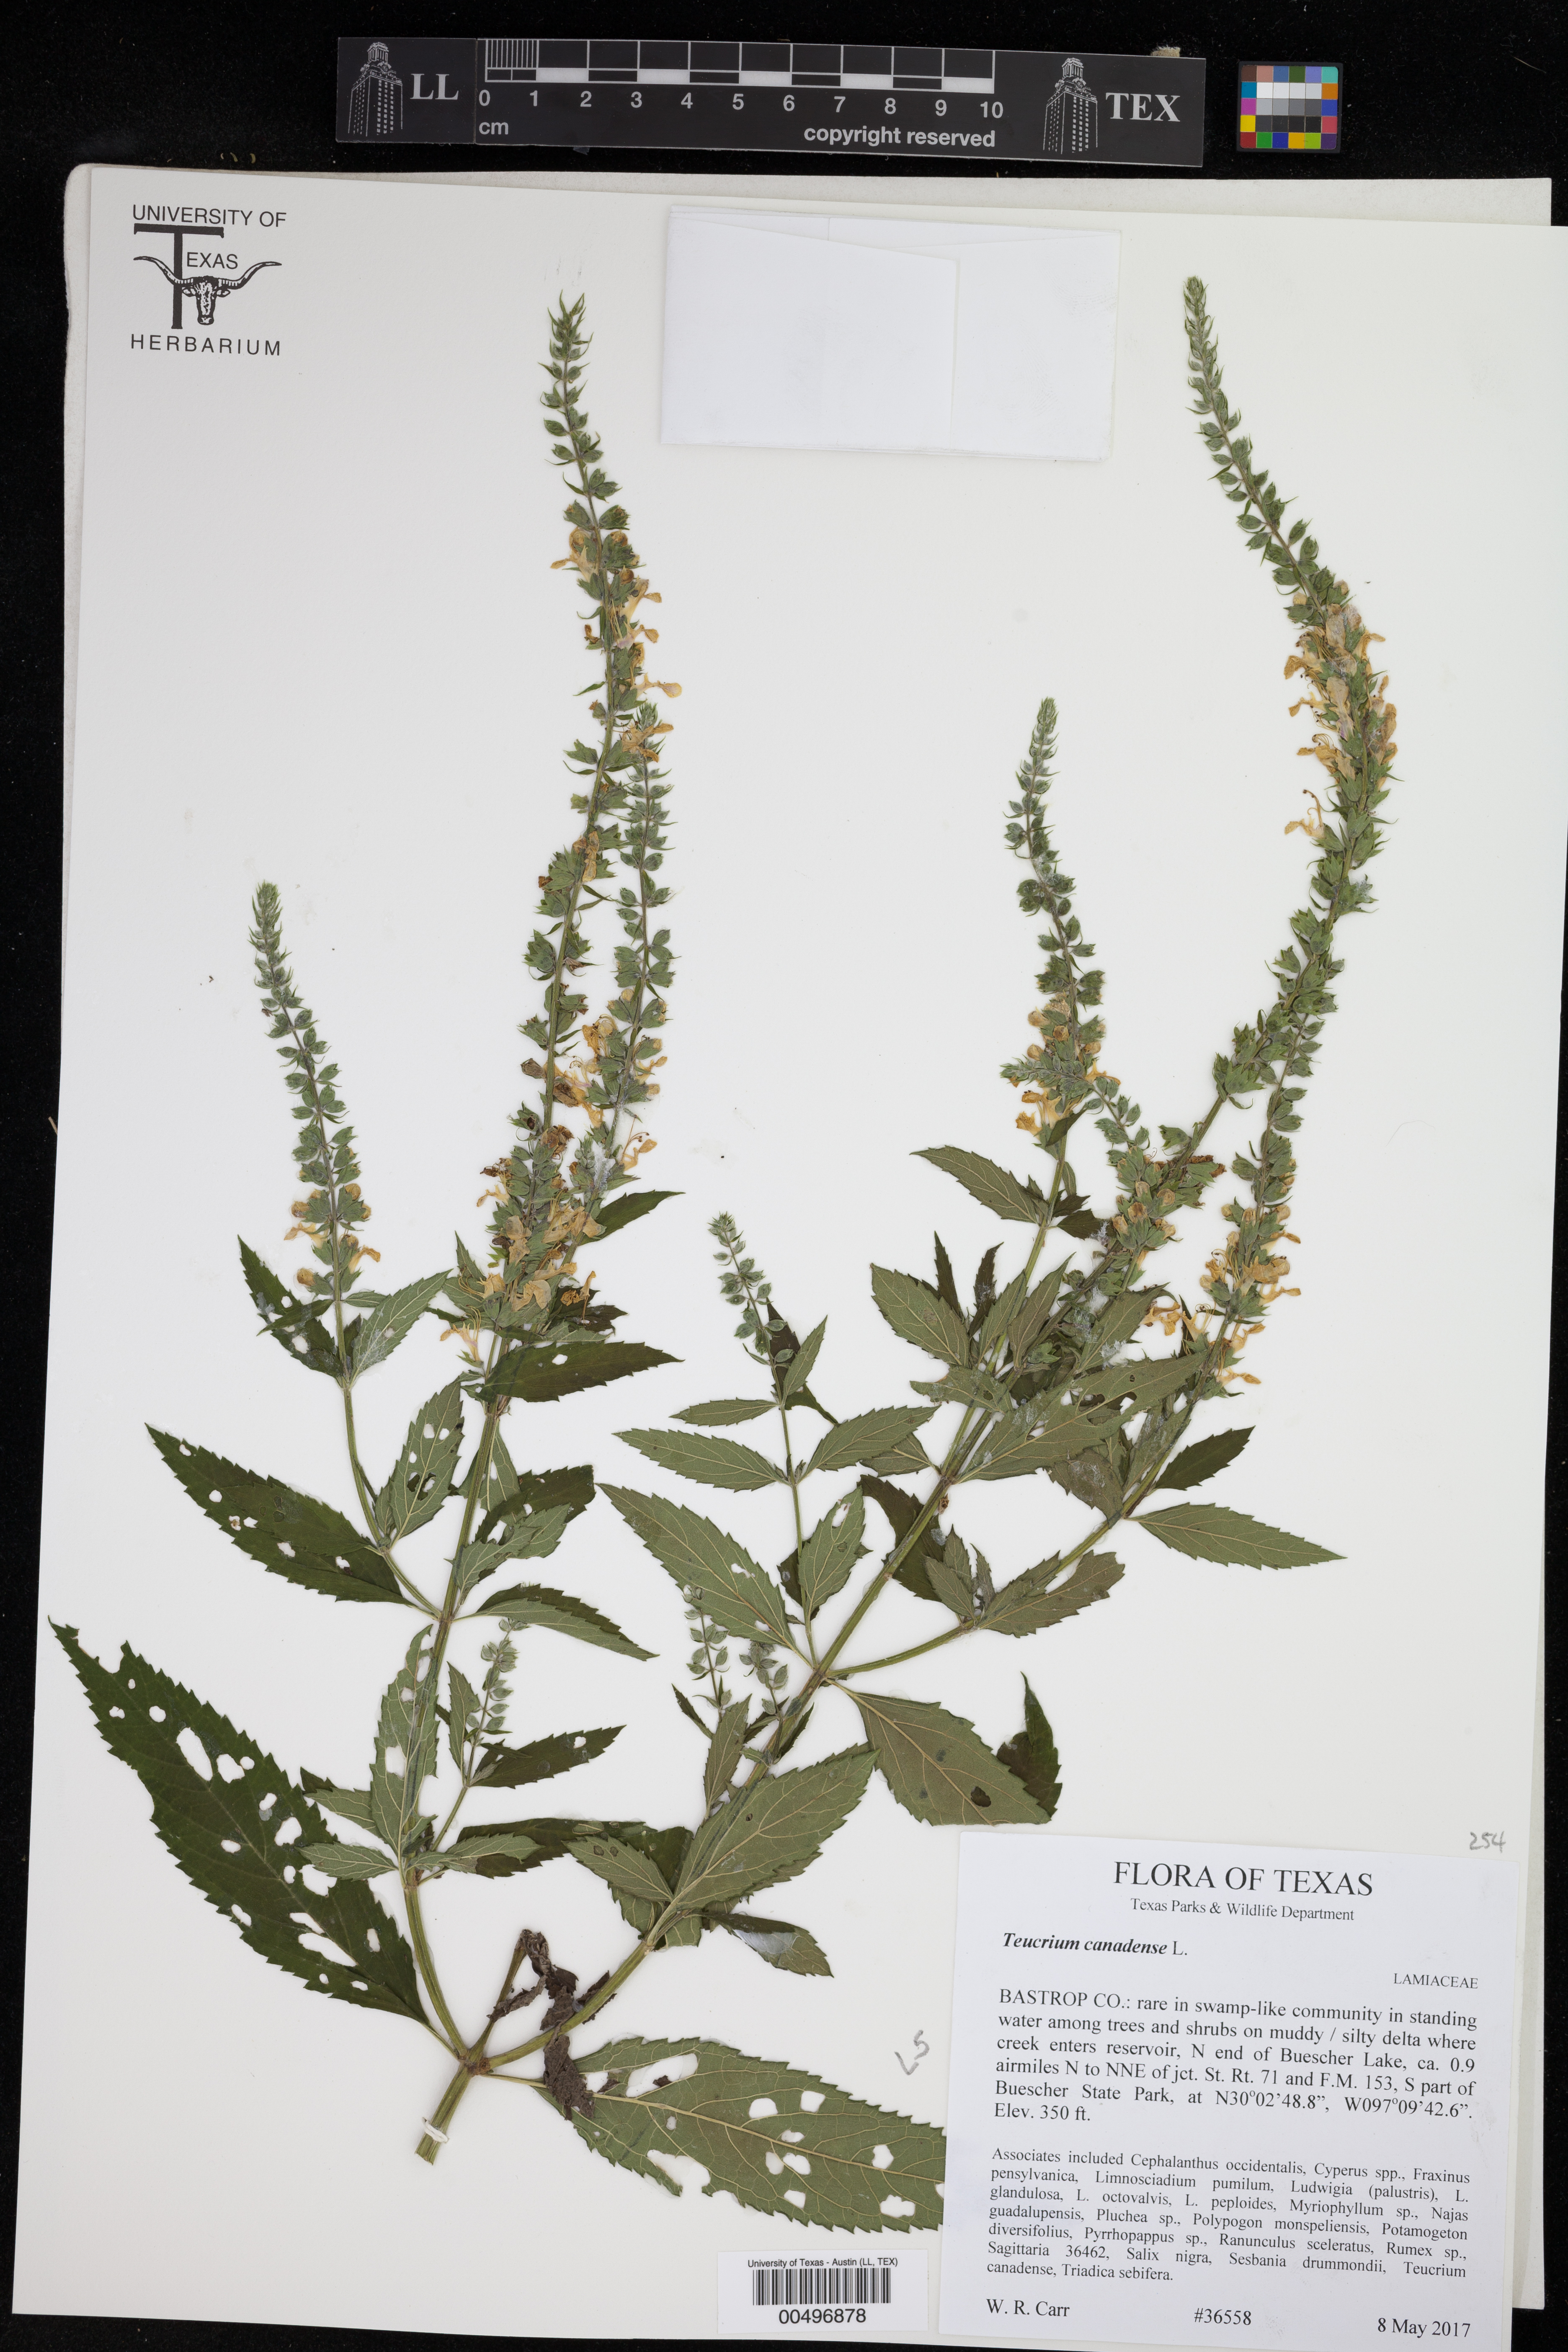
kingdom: Plantae
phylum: Tracheophyta
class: Magnoliopsida
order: Lamiales
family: Lamiaceae
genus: Teucrium
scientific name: Teucrium canadense
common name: American germander
